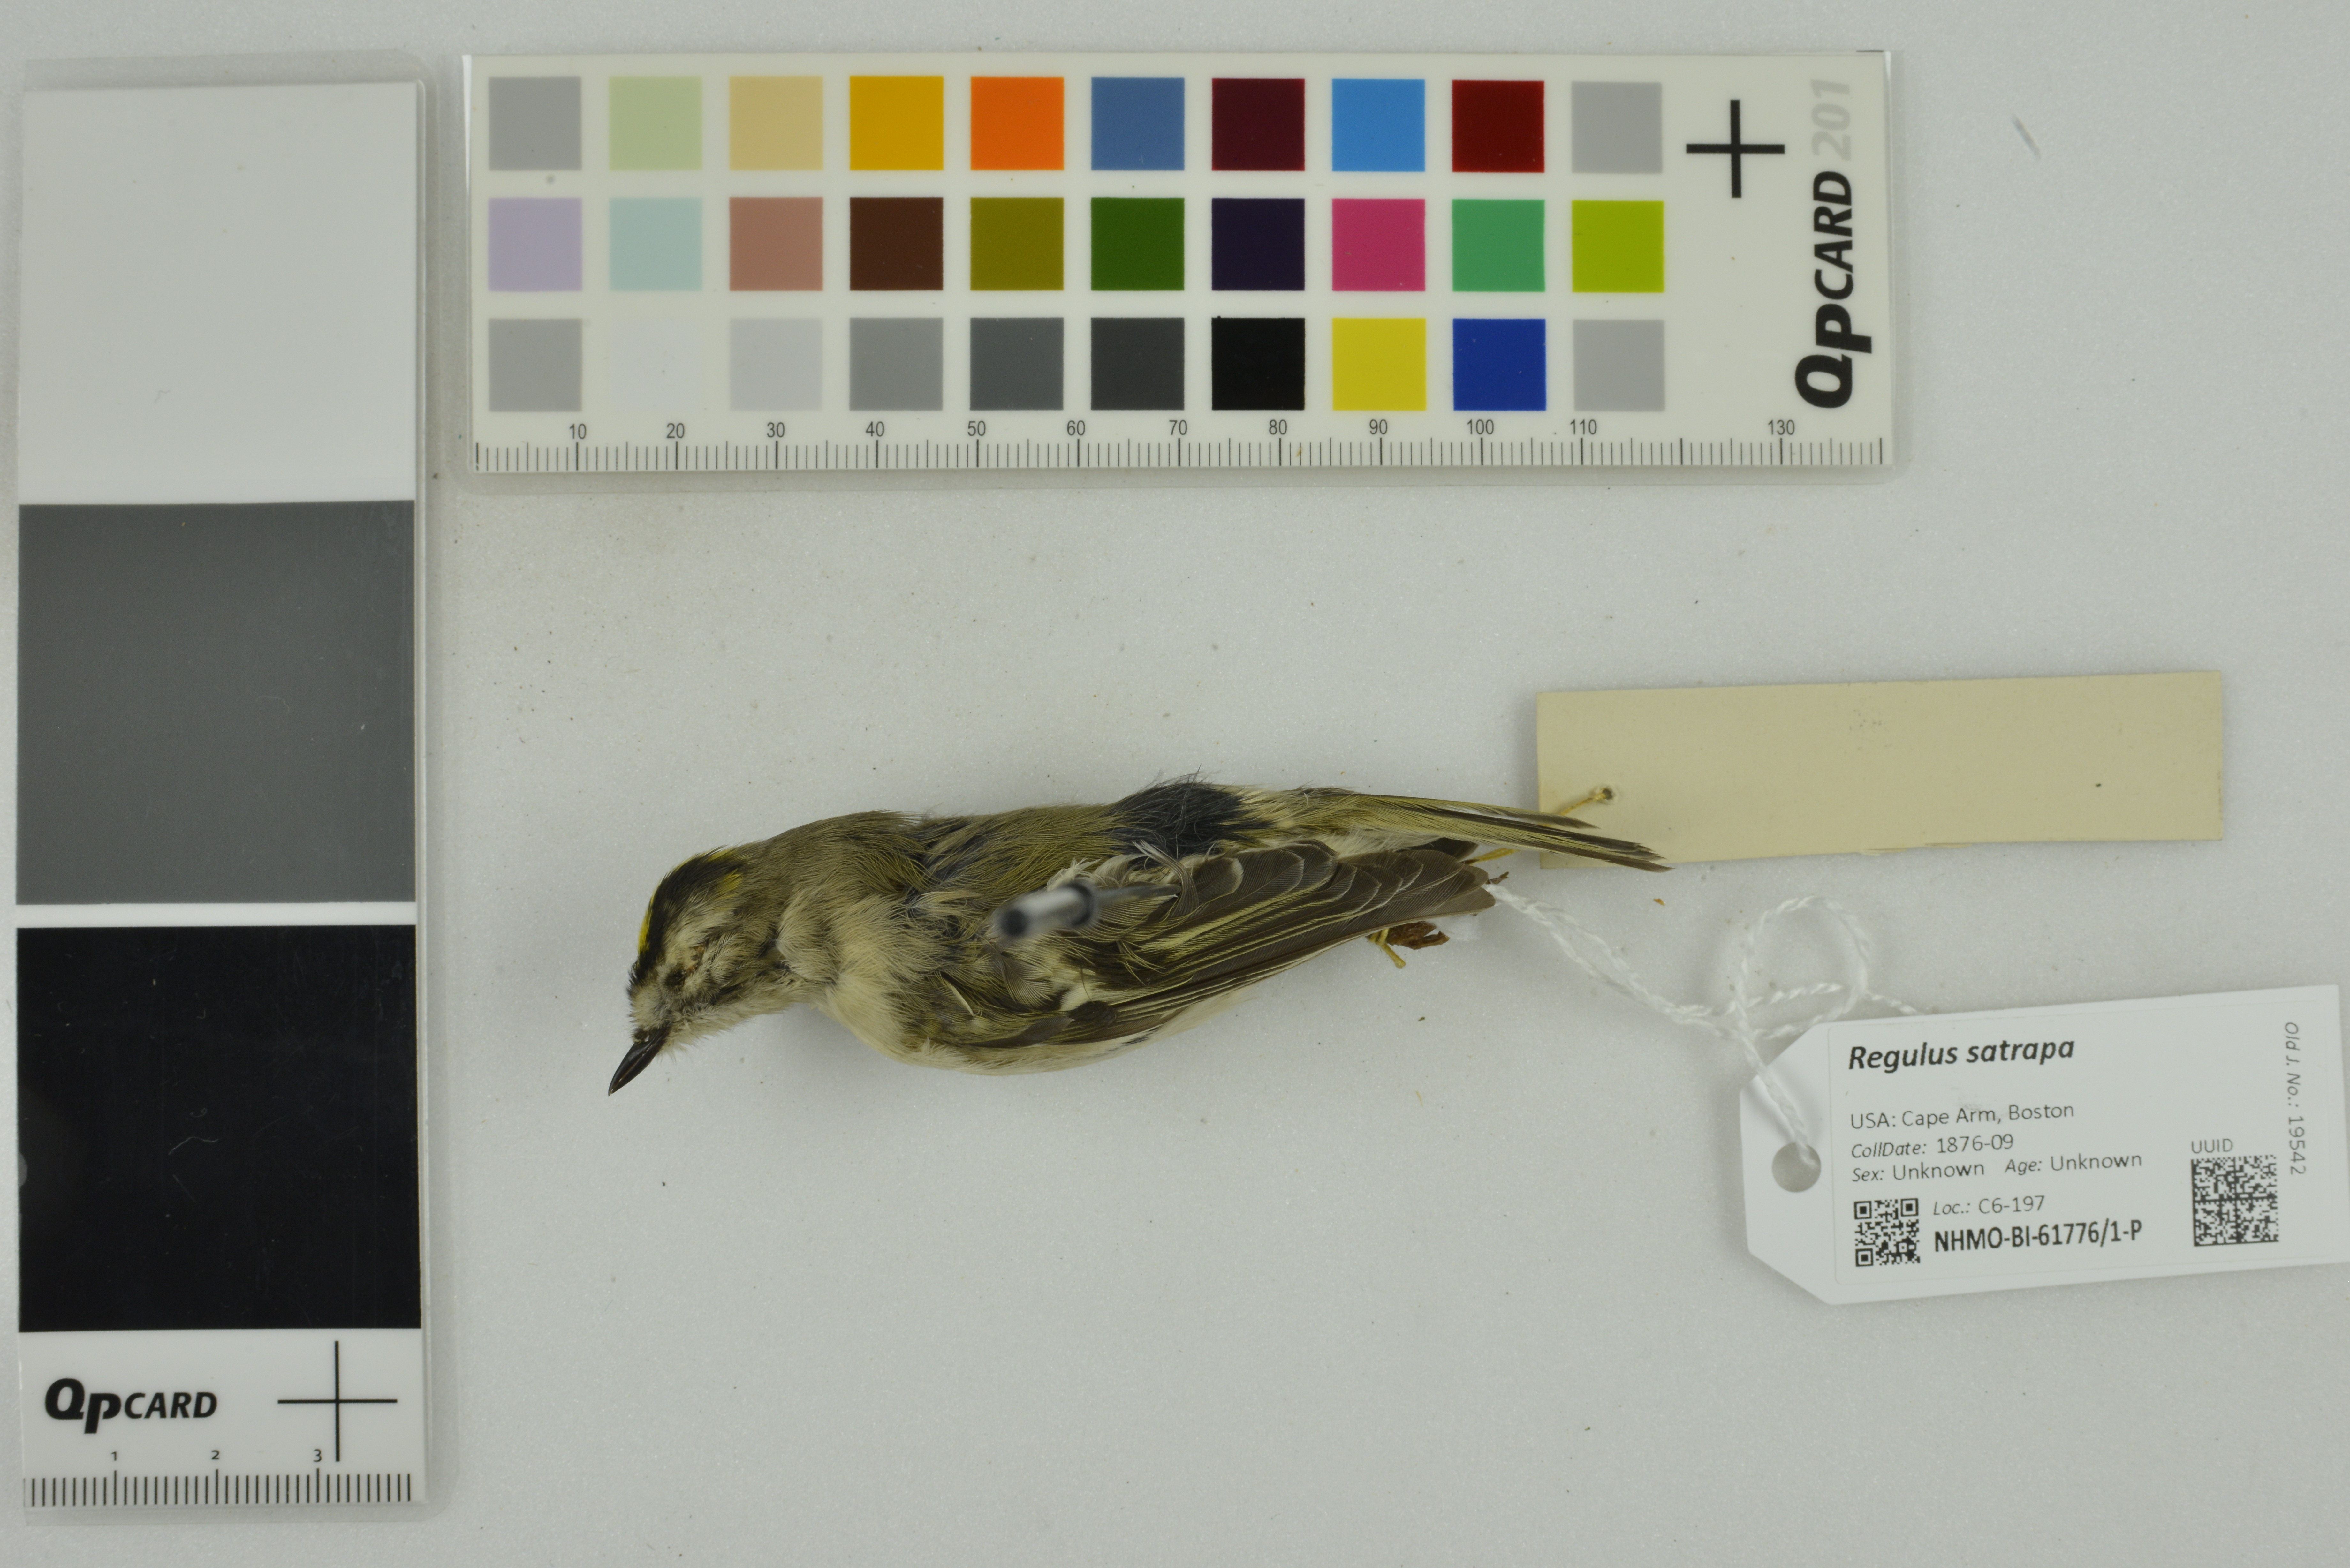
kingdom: Animalia
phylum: Chordata
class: Aves
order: Passeriformes
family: Regulidae
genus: Regulus
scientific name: Regulus satrapa
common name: Golden-crowned kinglet
